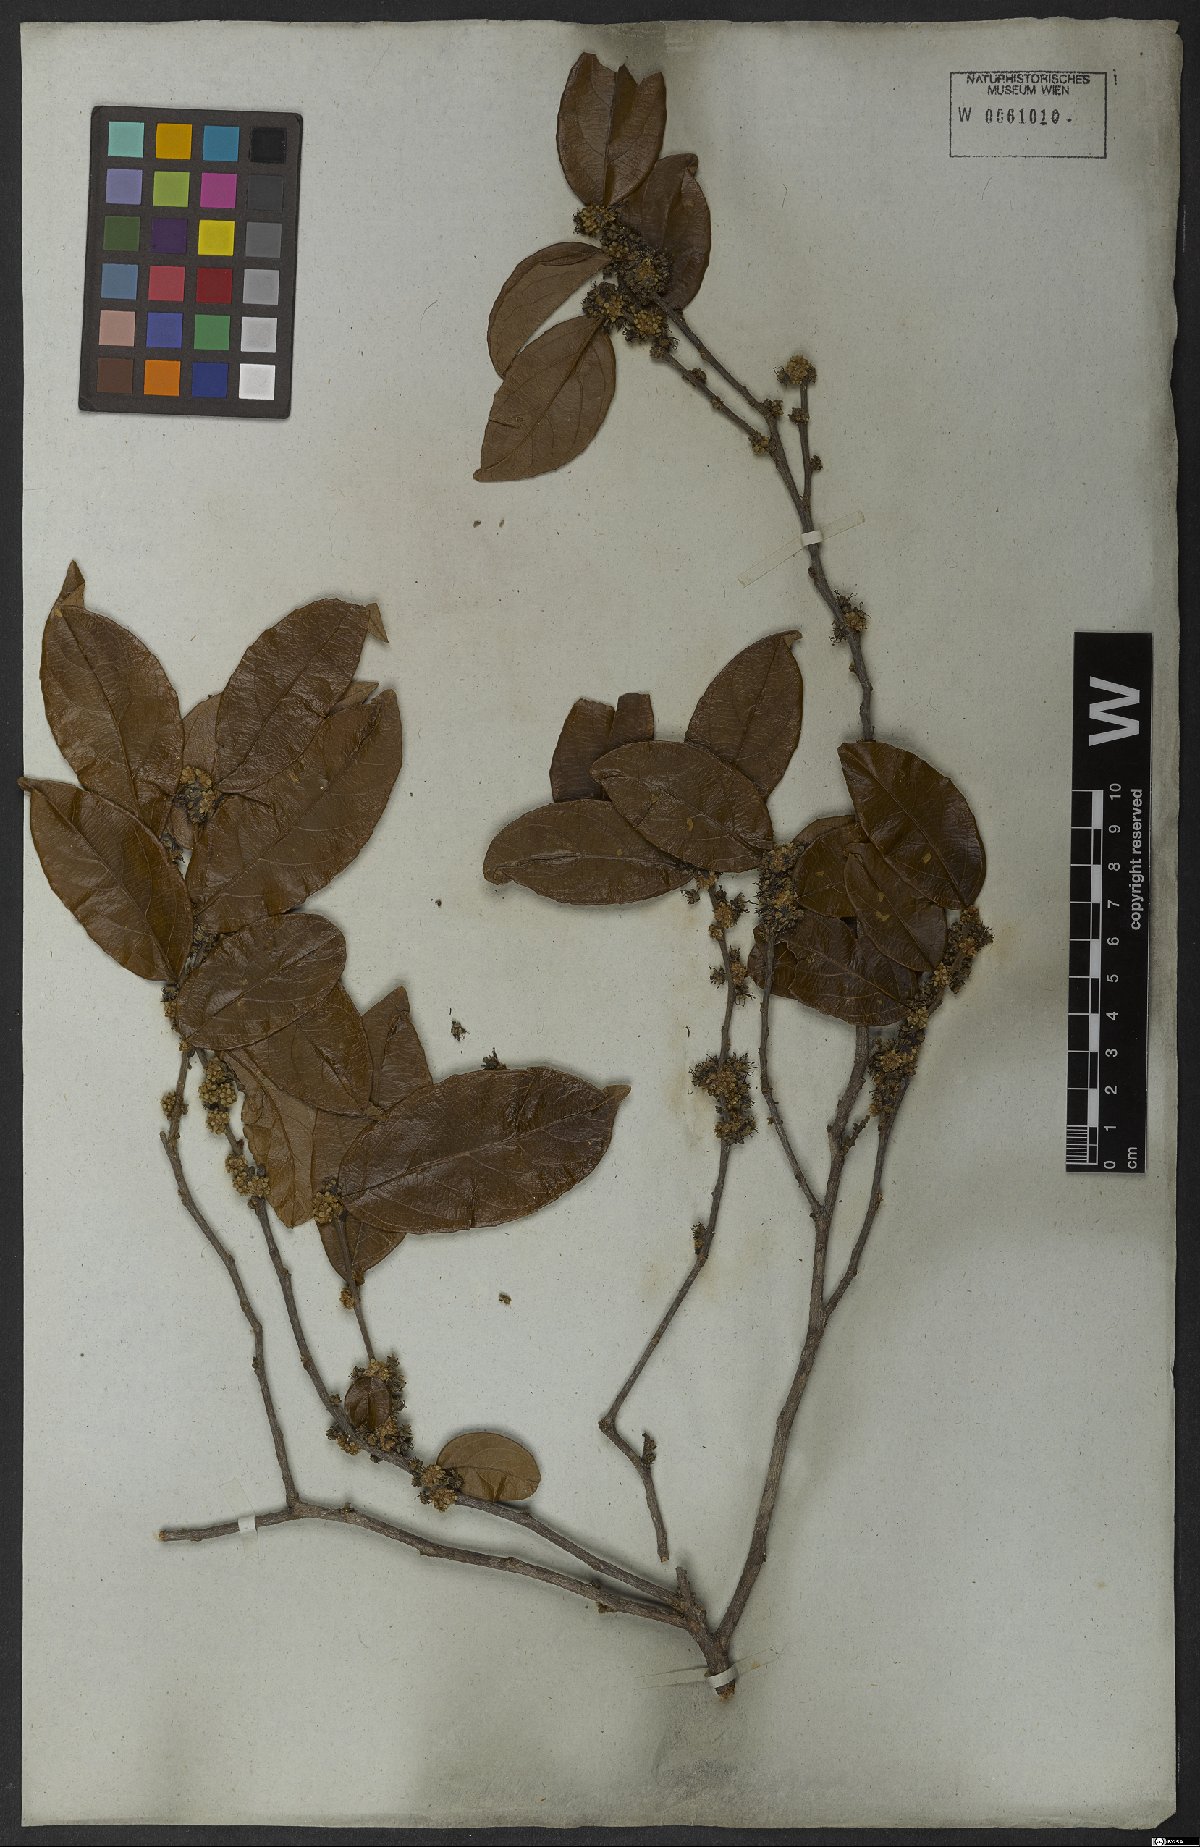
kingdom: Plantae
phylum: Tracheophyta
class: Magnoliopsida
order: Malpighiales
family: Salicaceae
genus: Casearia
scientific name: Casearia
